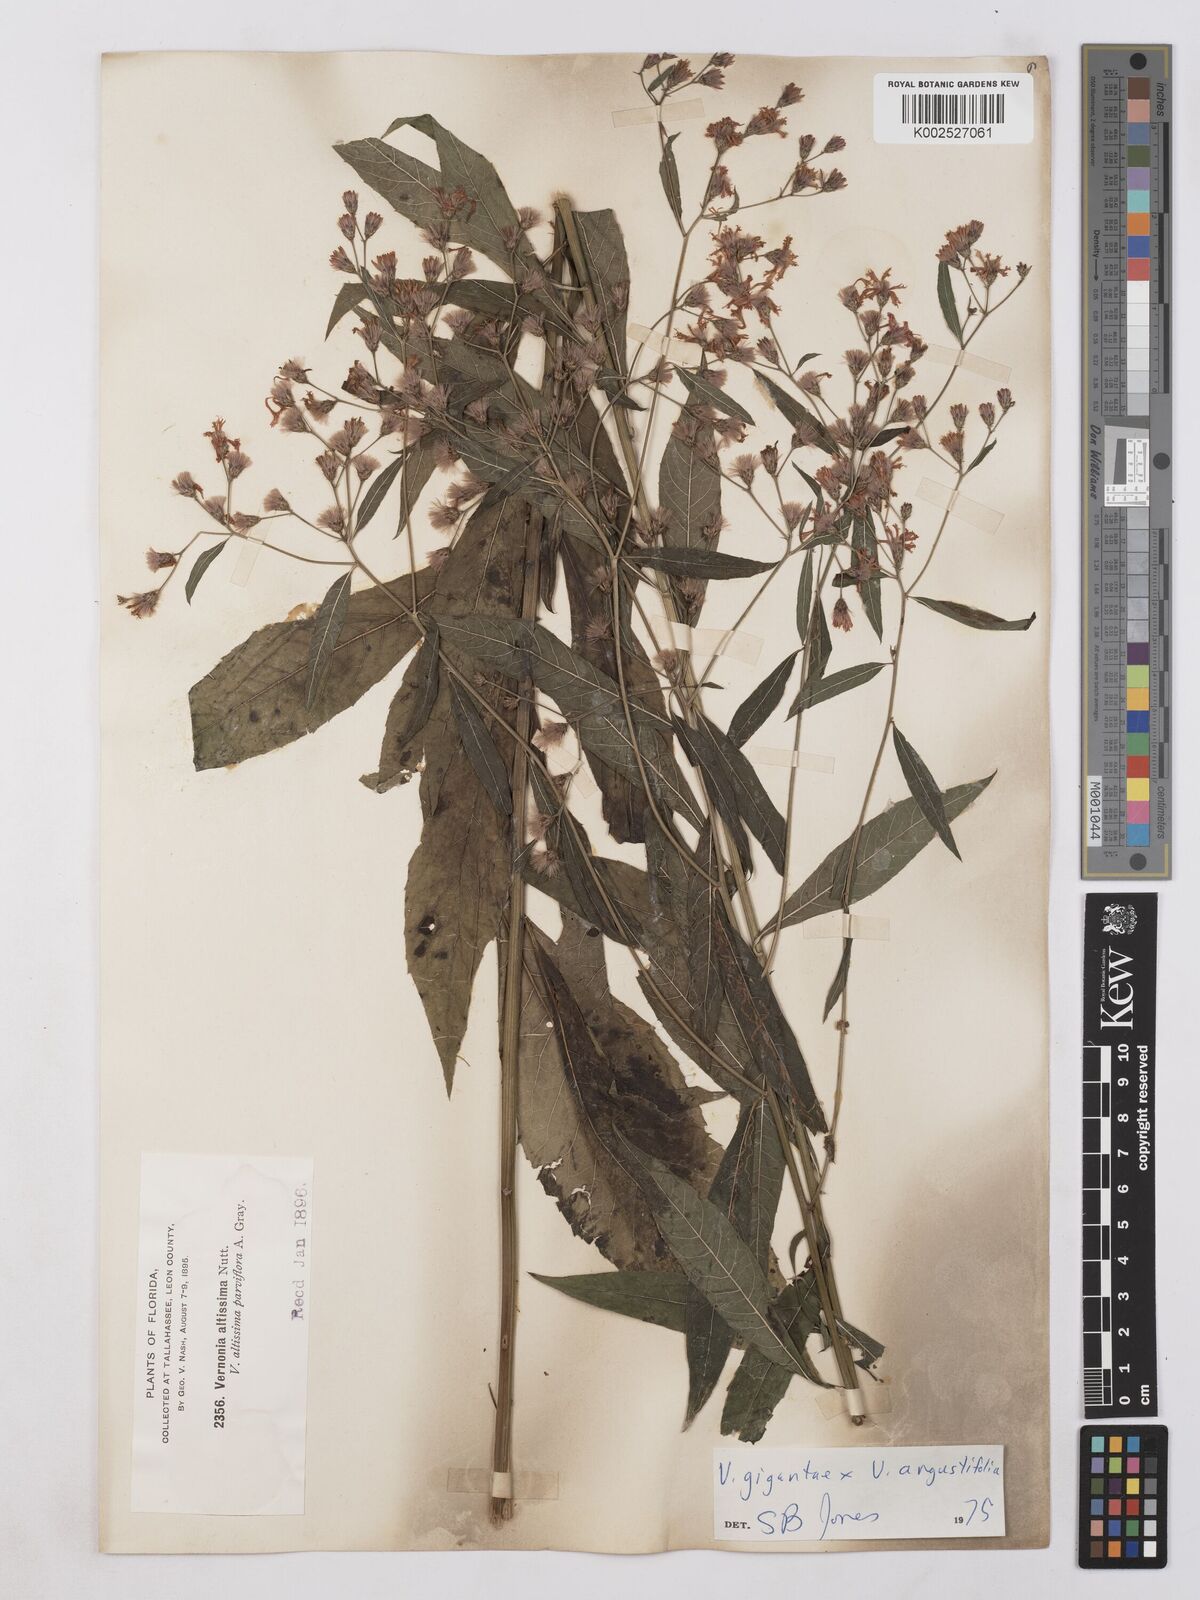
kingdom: Plantae
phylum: Tracheophyta
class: Magnoliopsida
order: Asterales
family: Asteraceae
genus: Vernonia
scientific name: Vernonia gigantea
